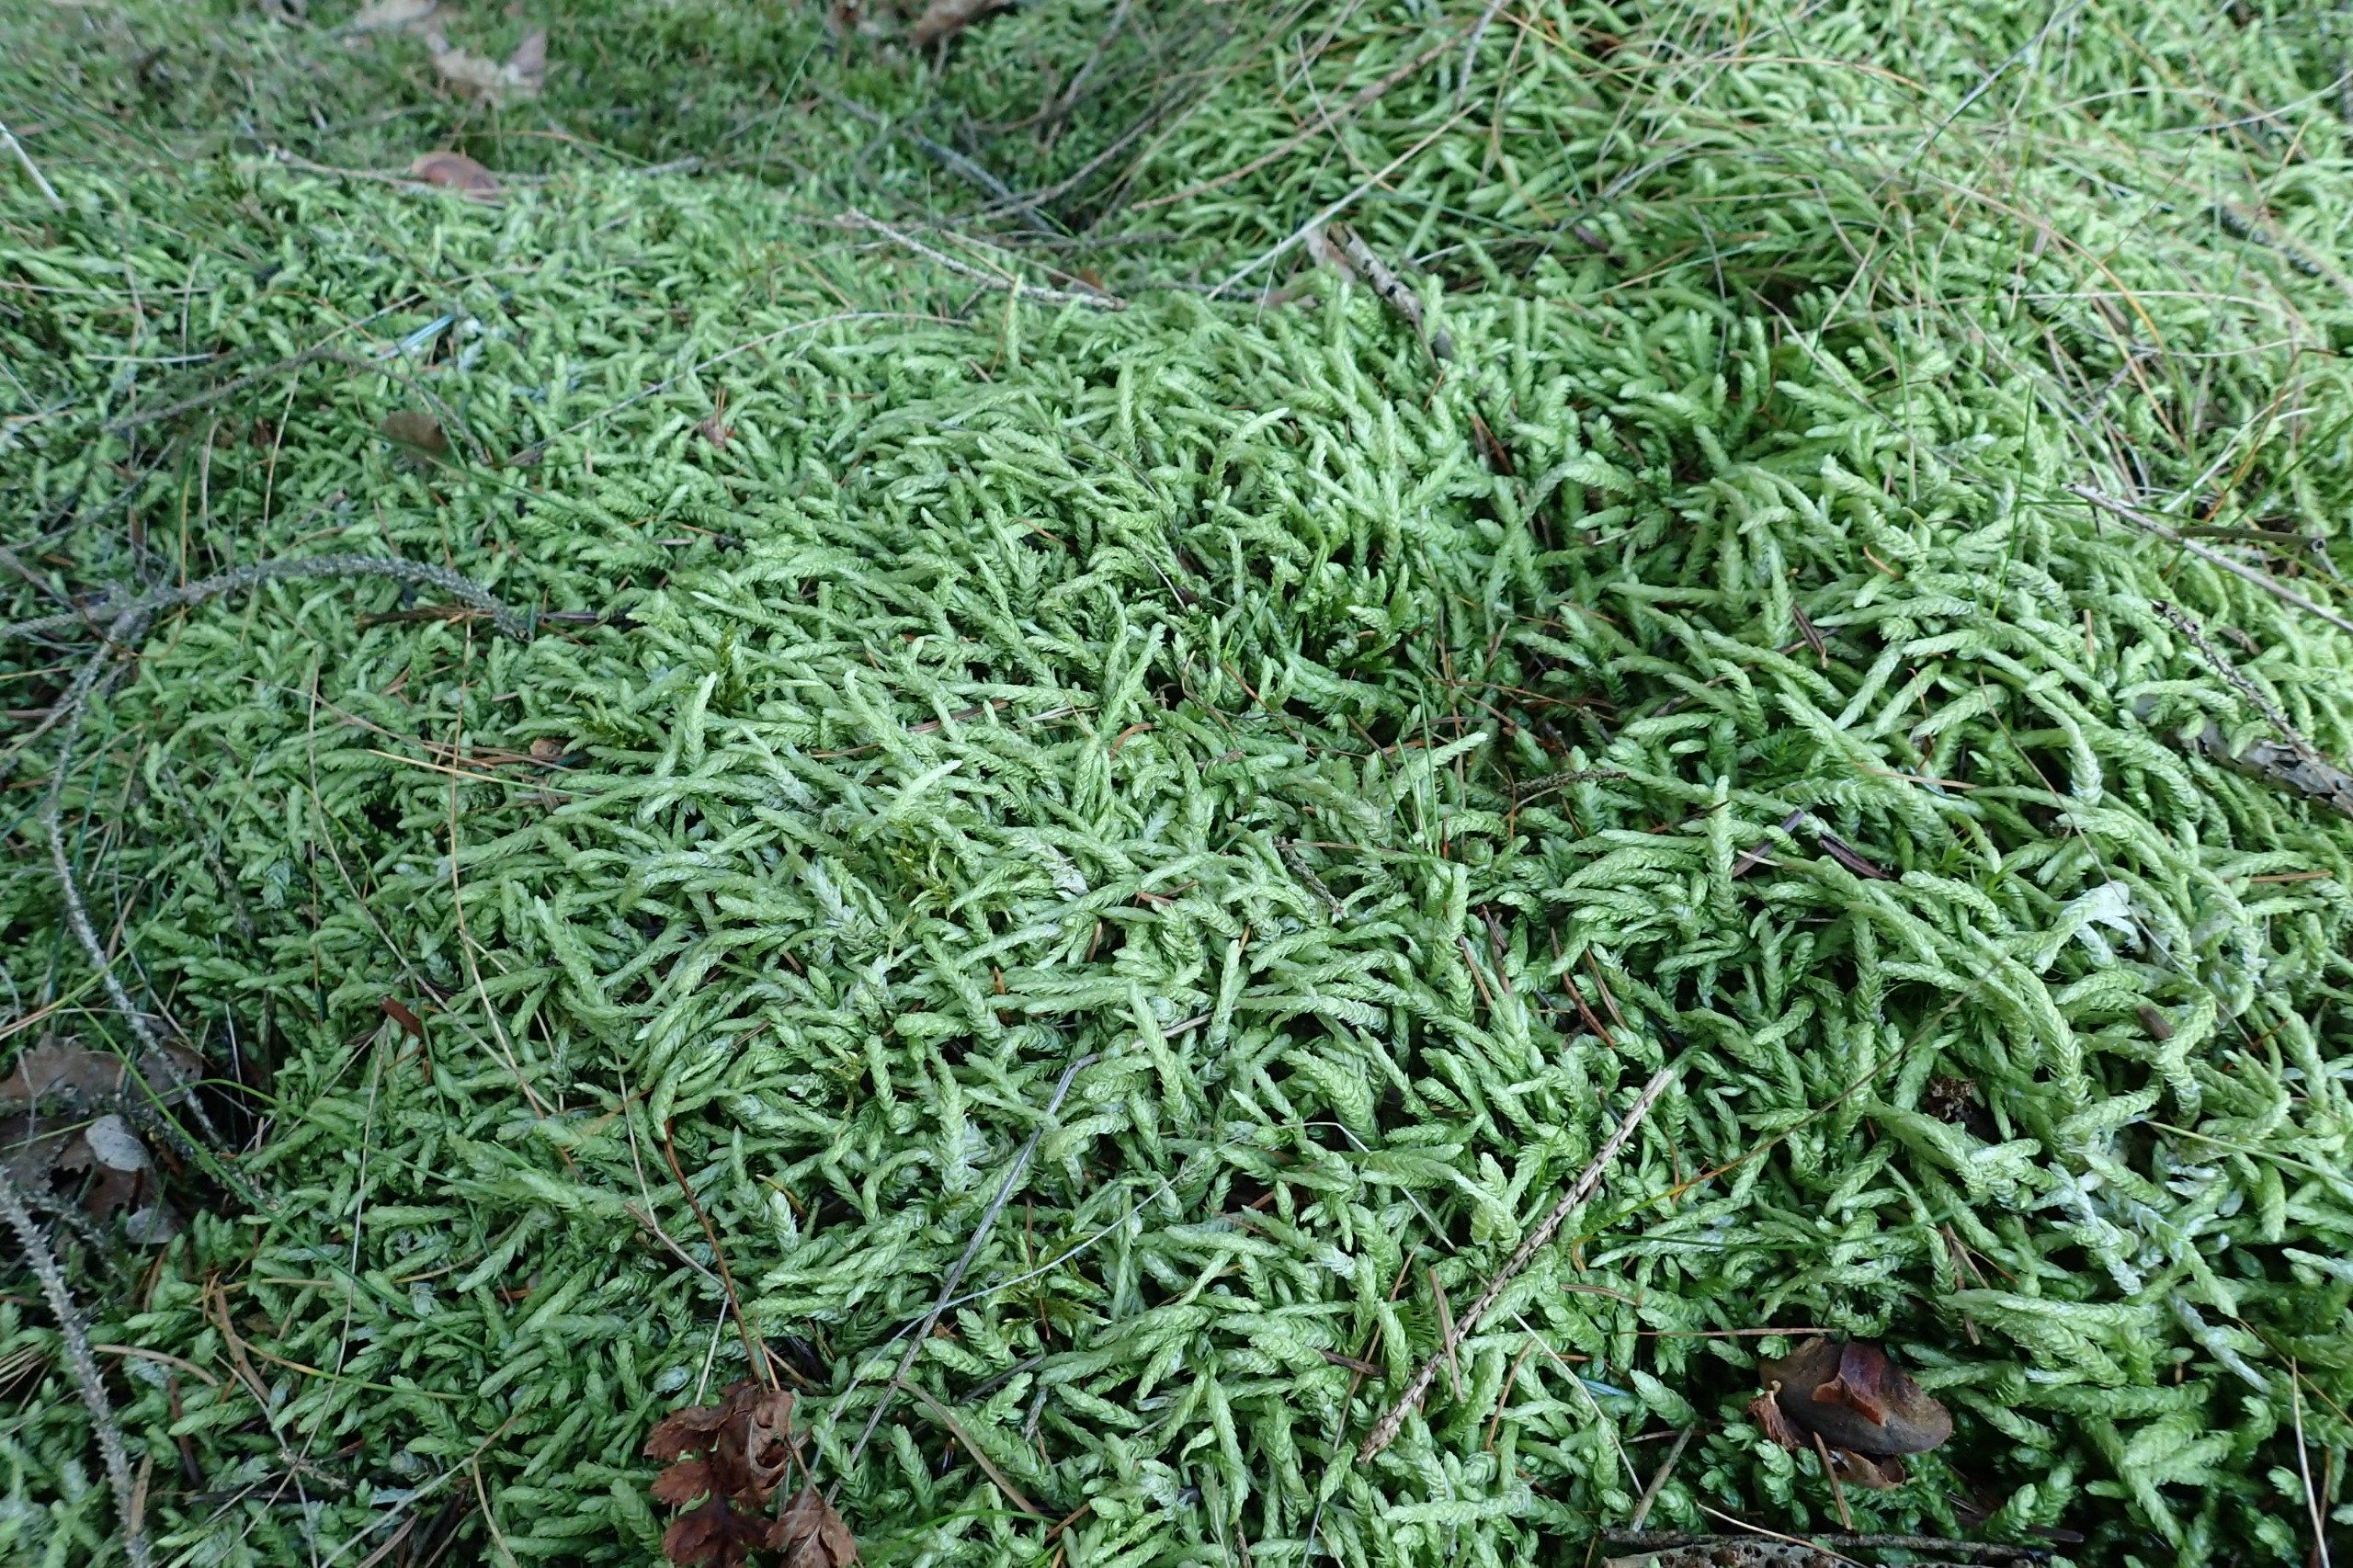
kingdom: Plantae
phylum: Bryophyta
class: Bryopsida
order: Hypnales
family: Plagiotheciaceae
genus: Plagiothecium
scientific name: Plagiothecium undulatum
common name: Bølget tæppemos
